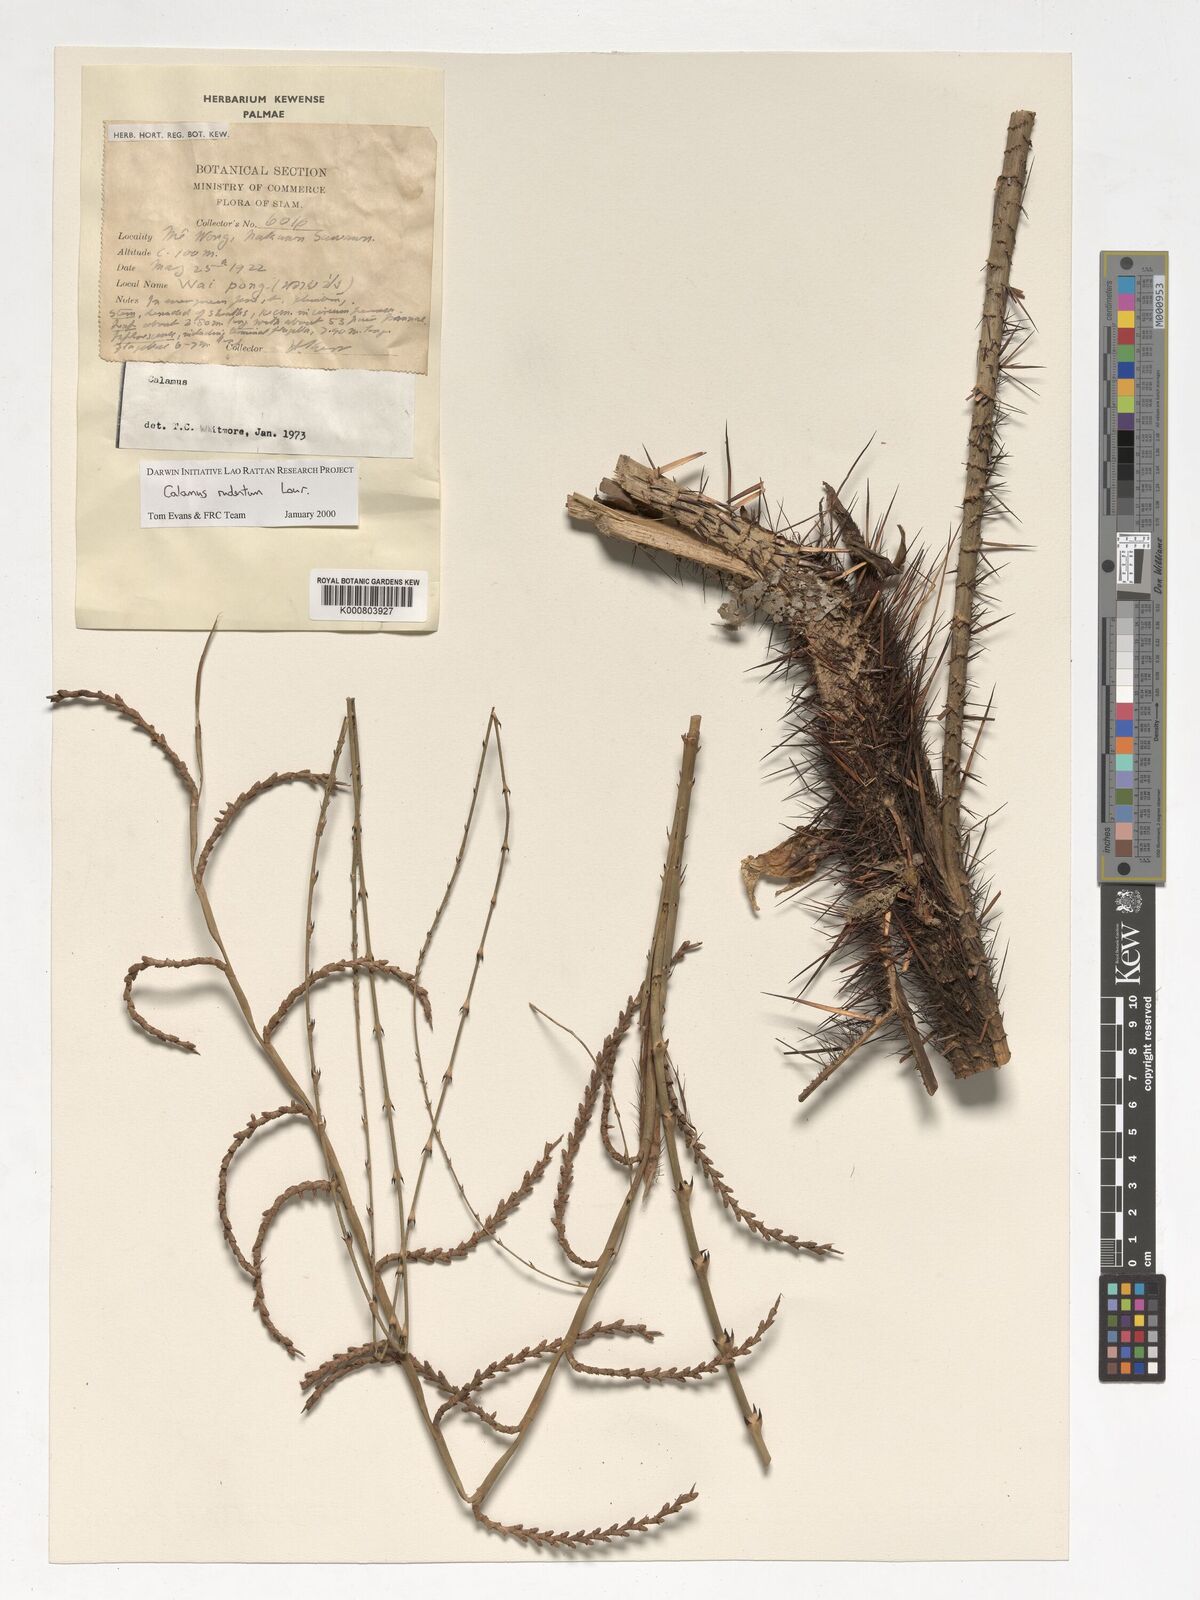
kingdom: Plantae
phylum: Tracheophyta
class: Liliopsida
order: Arecales
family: Arecaceae
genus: Calamus
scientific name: Calamus rudentum
